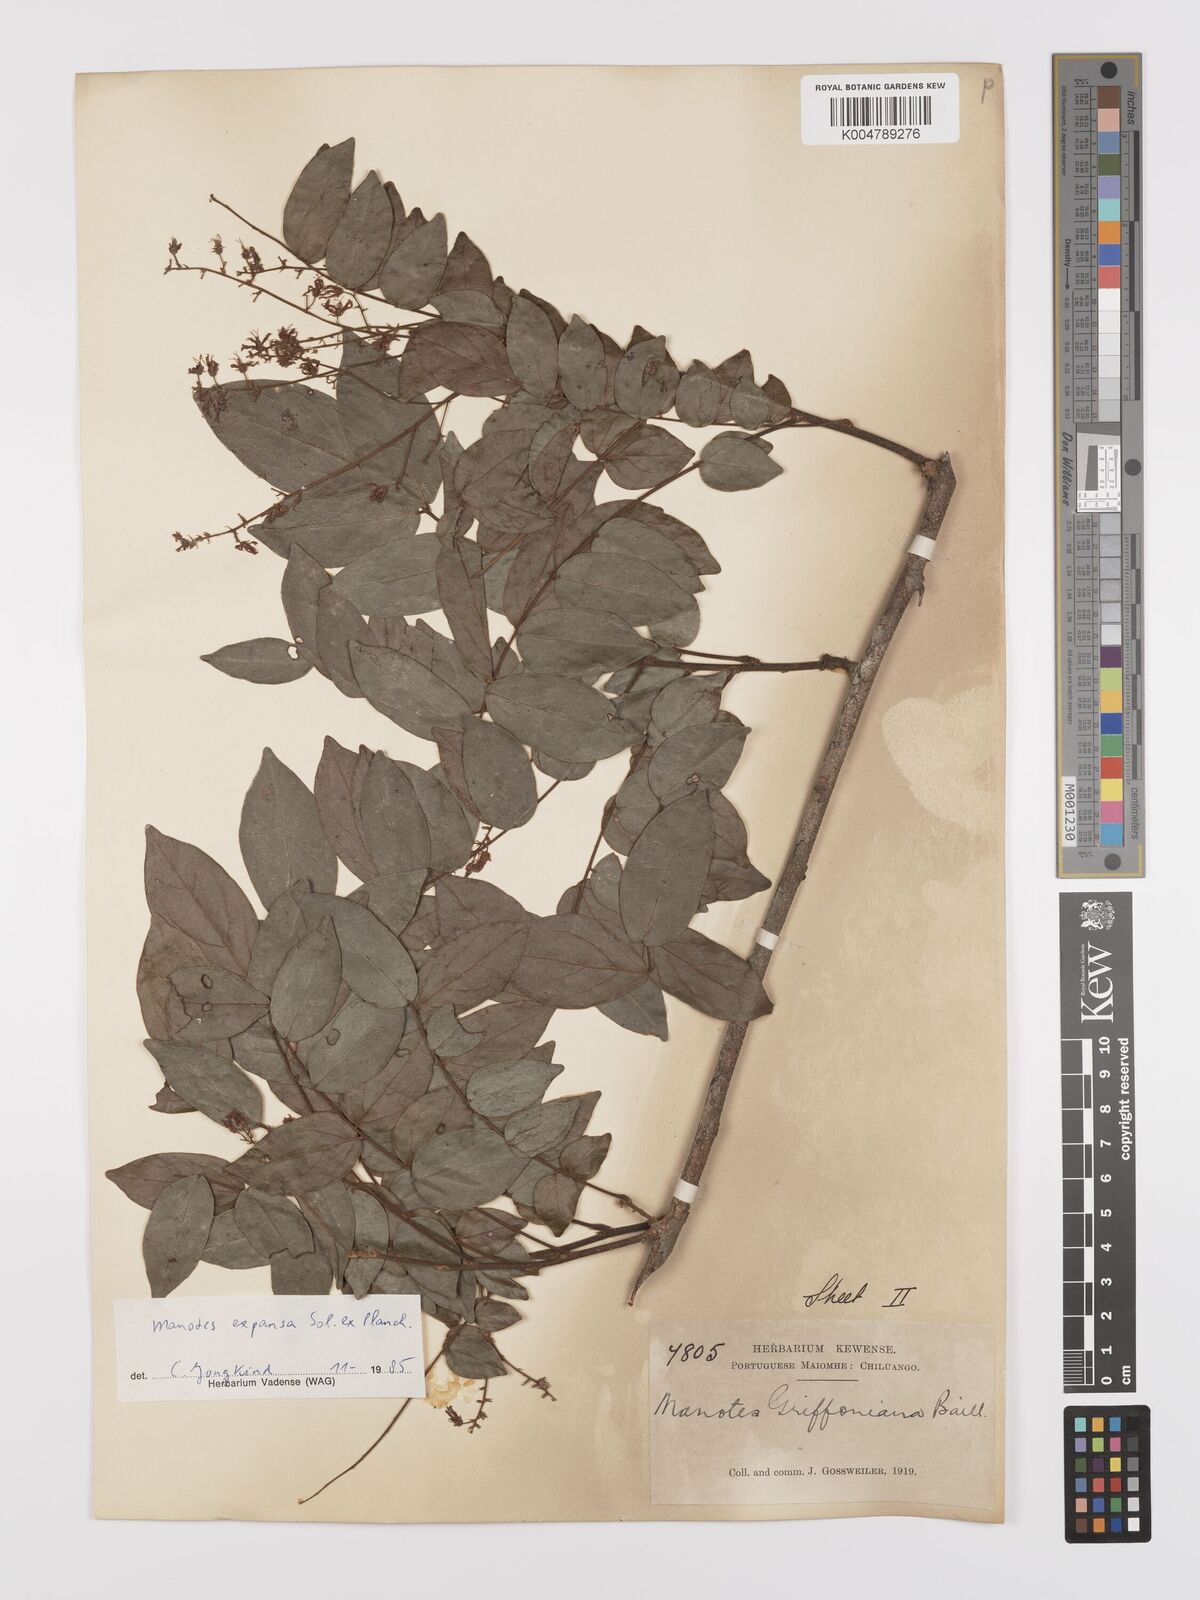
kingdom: Plantae
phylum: Tracheophyta
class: Magnoliopsida
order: Oxalidales
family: Connaraceae
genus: Manotes
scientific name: Manotes expansa
